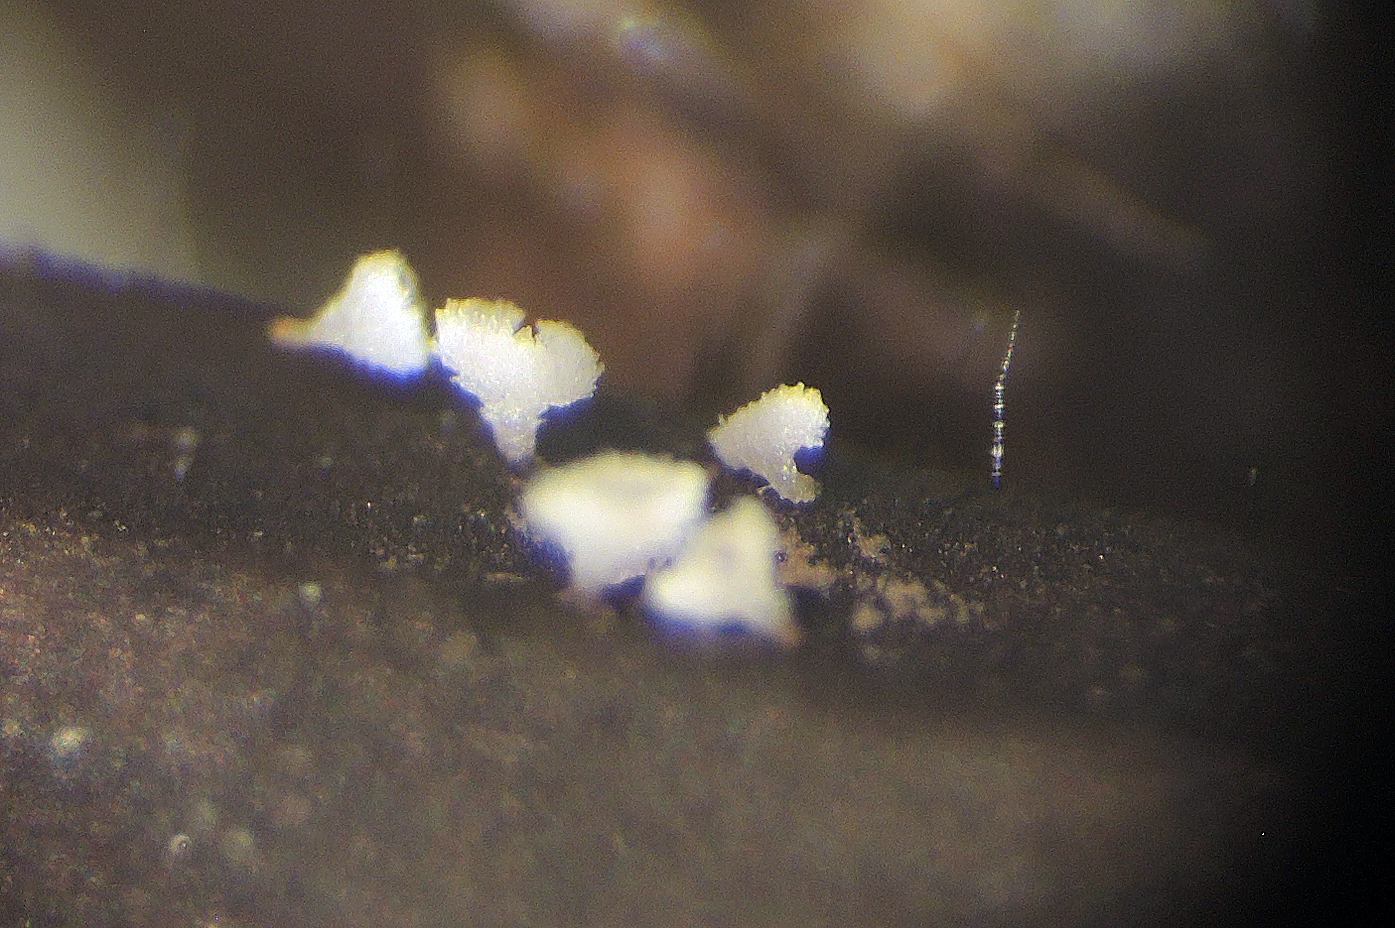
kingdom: Fungi
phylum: Ascomycota
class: Leotiomycetes
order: Helotiales
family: Lachnaceae
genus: Lachnellula
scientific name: Lachnellula pulverulenta
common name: fyrrenåls-frynseskive
